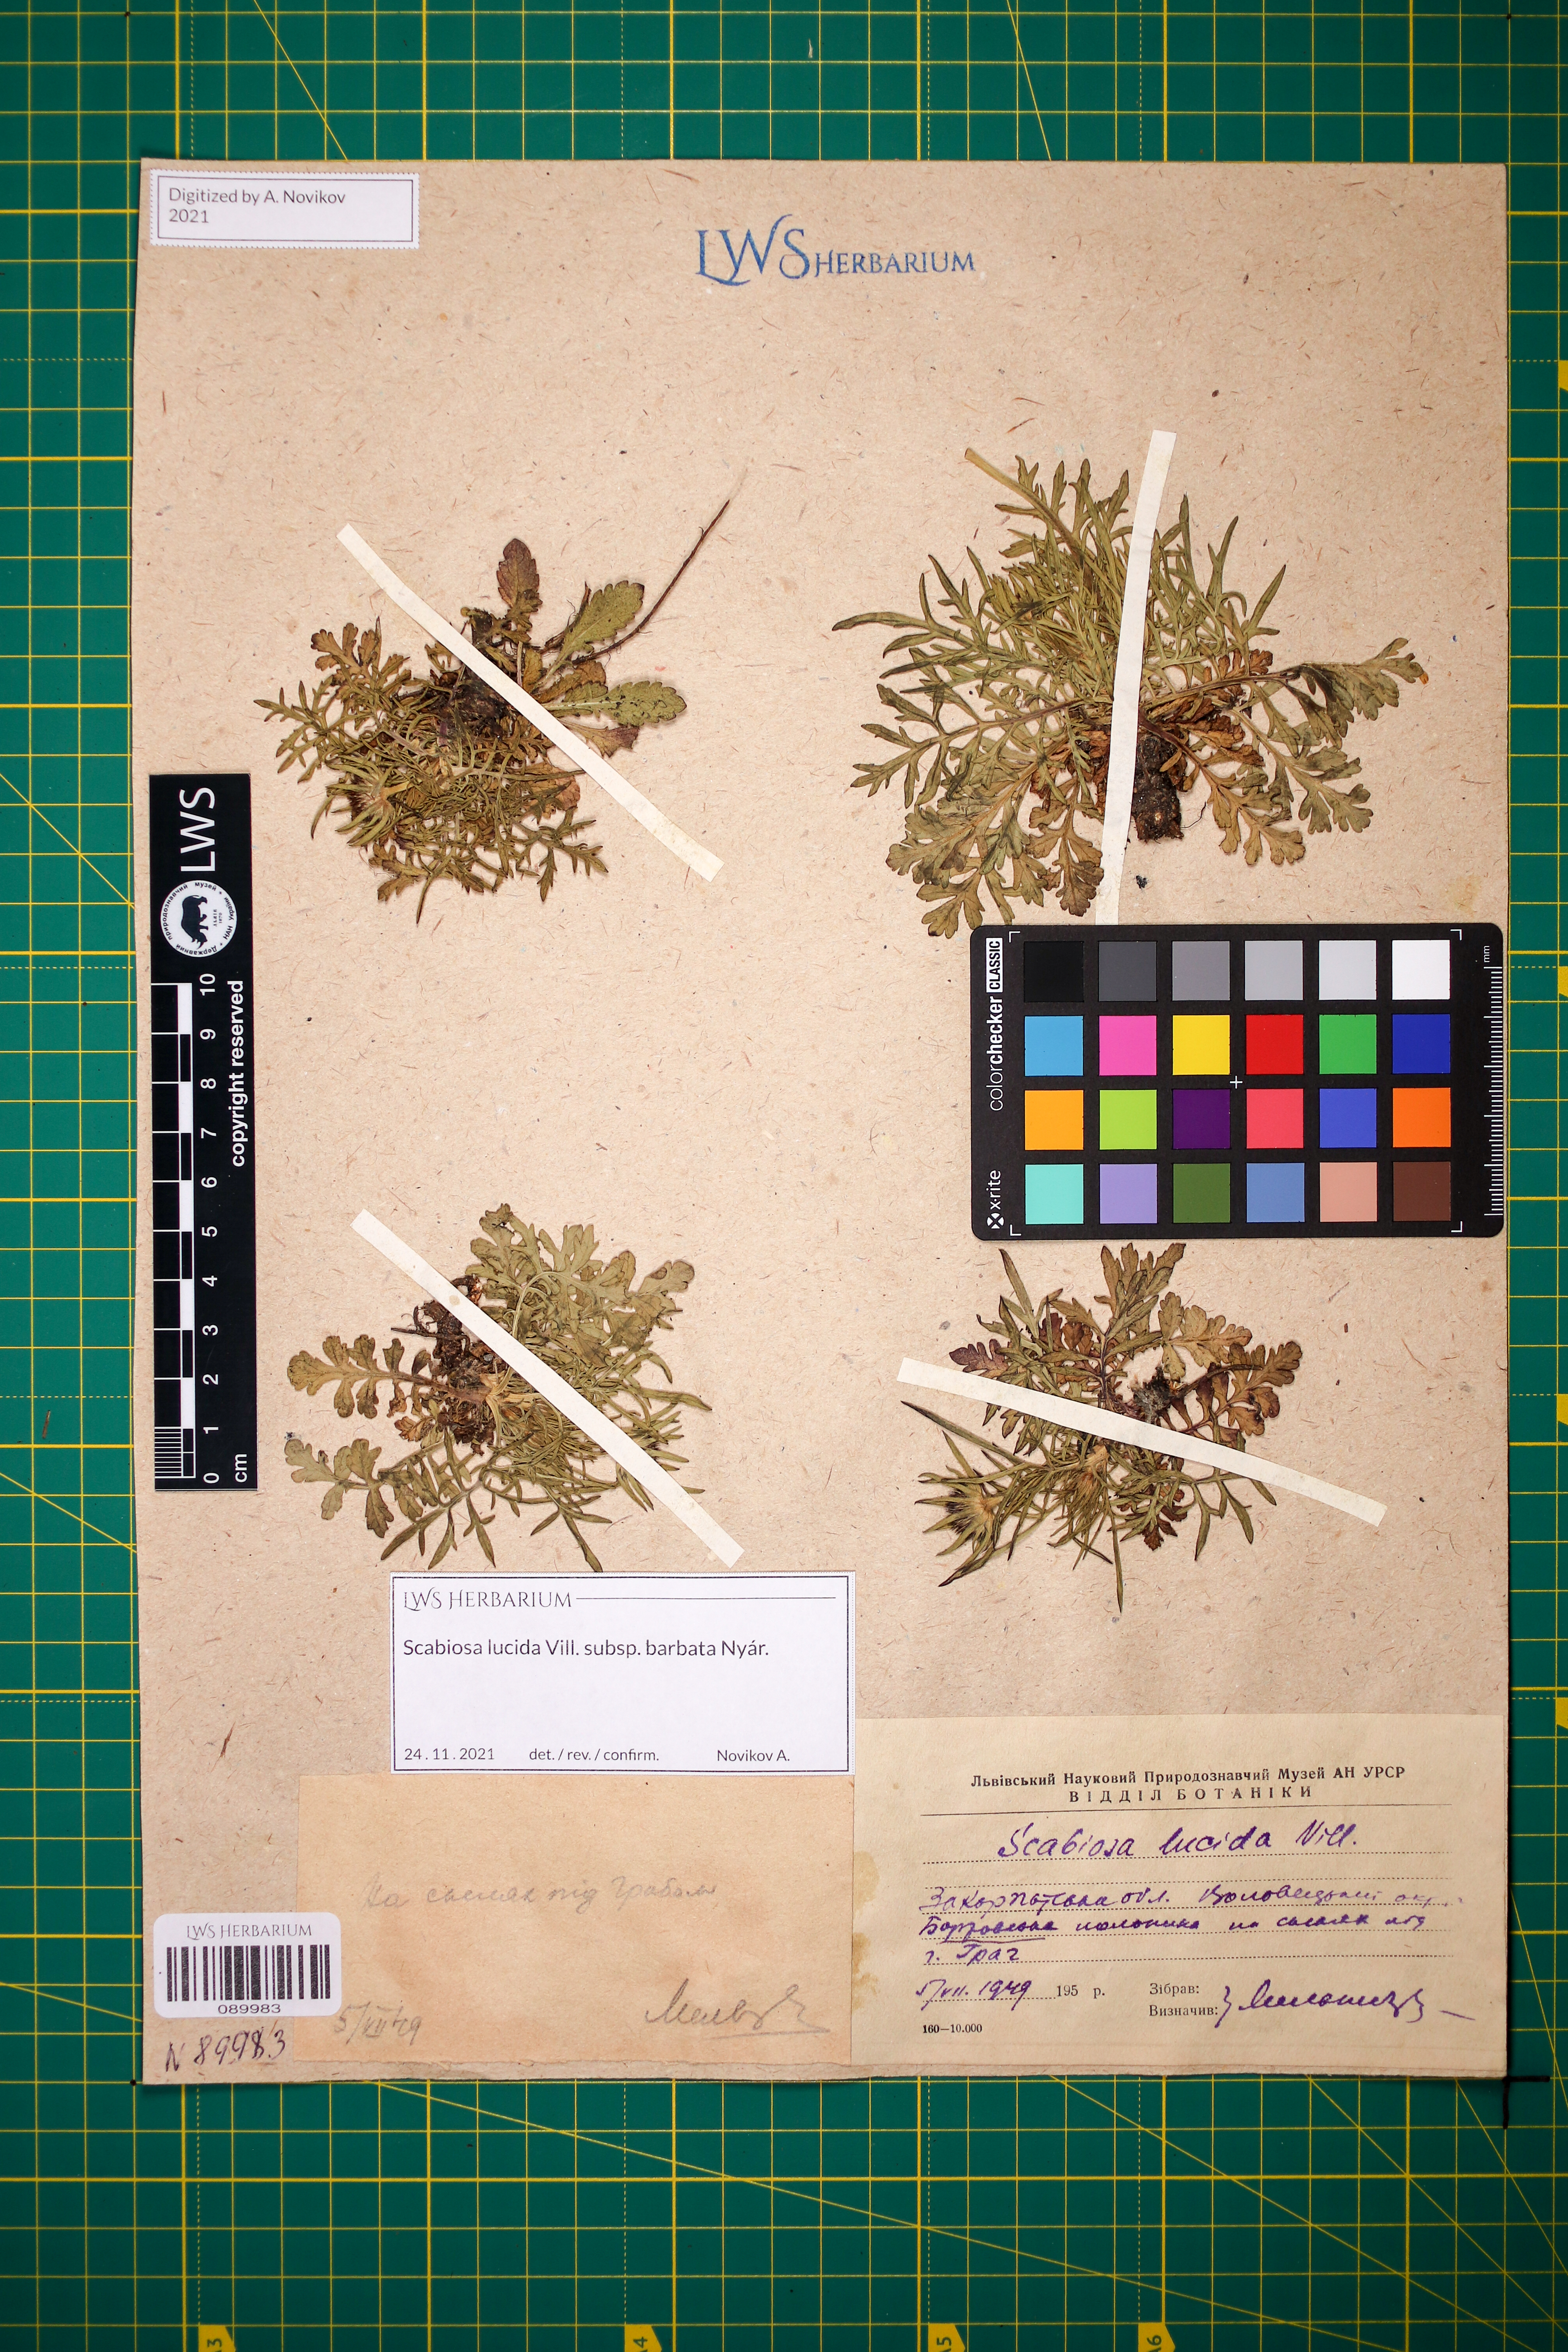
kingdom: Plantae
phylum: Tracheophyta
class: Magnoliopsida
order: Dipsacales
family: Caprifoliaceae
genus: Scabiosa
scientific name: Scabiosa lucida
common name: Shining scabious
